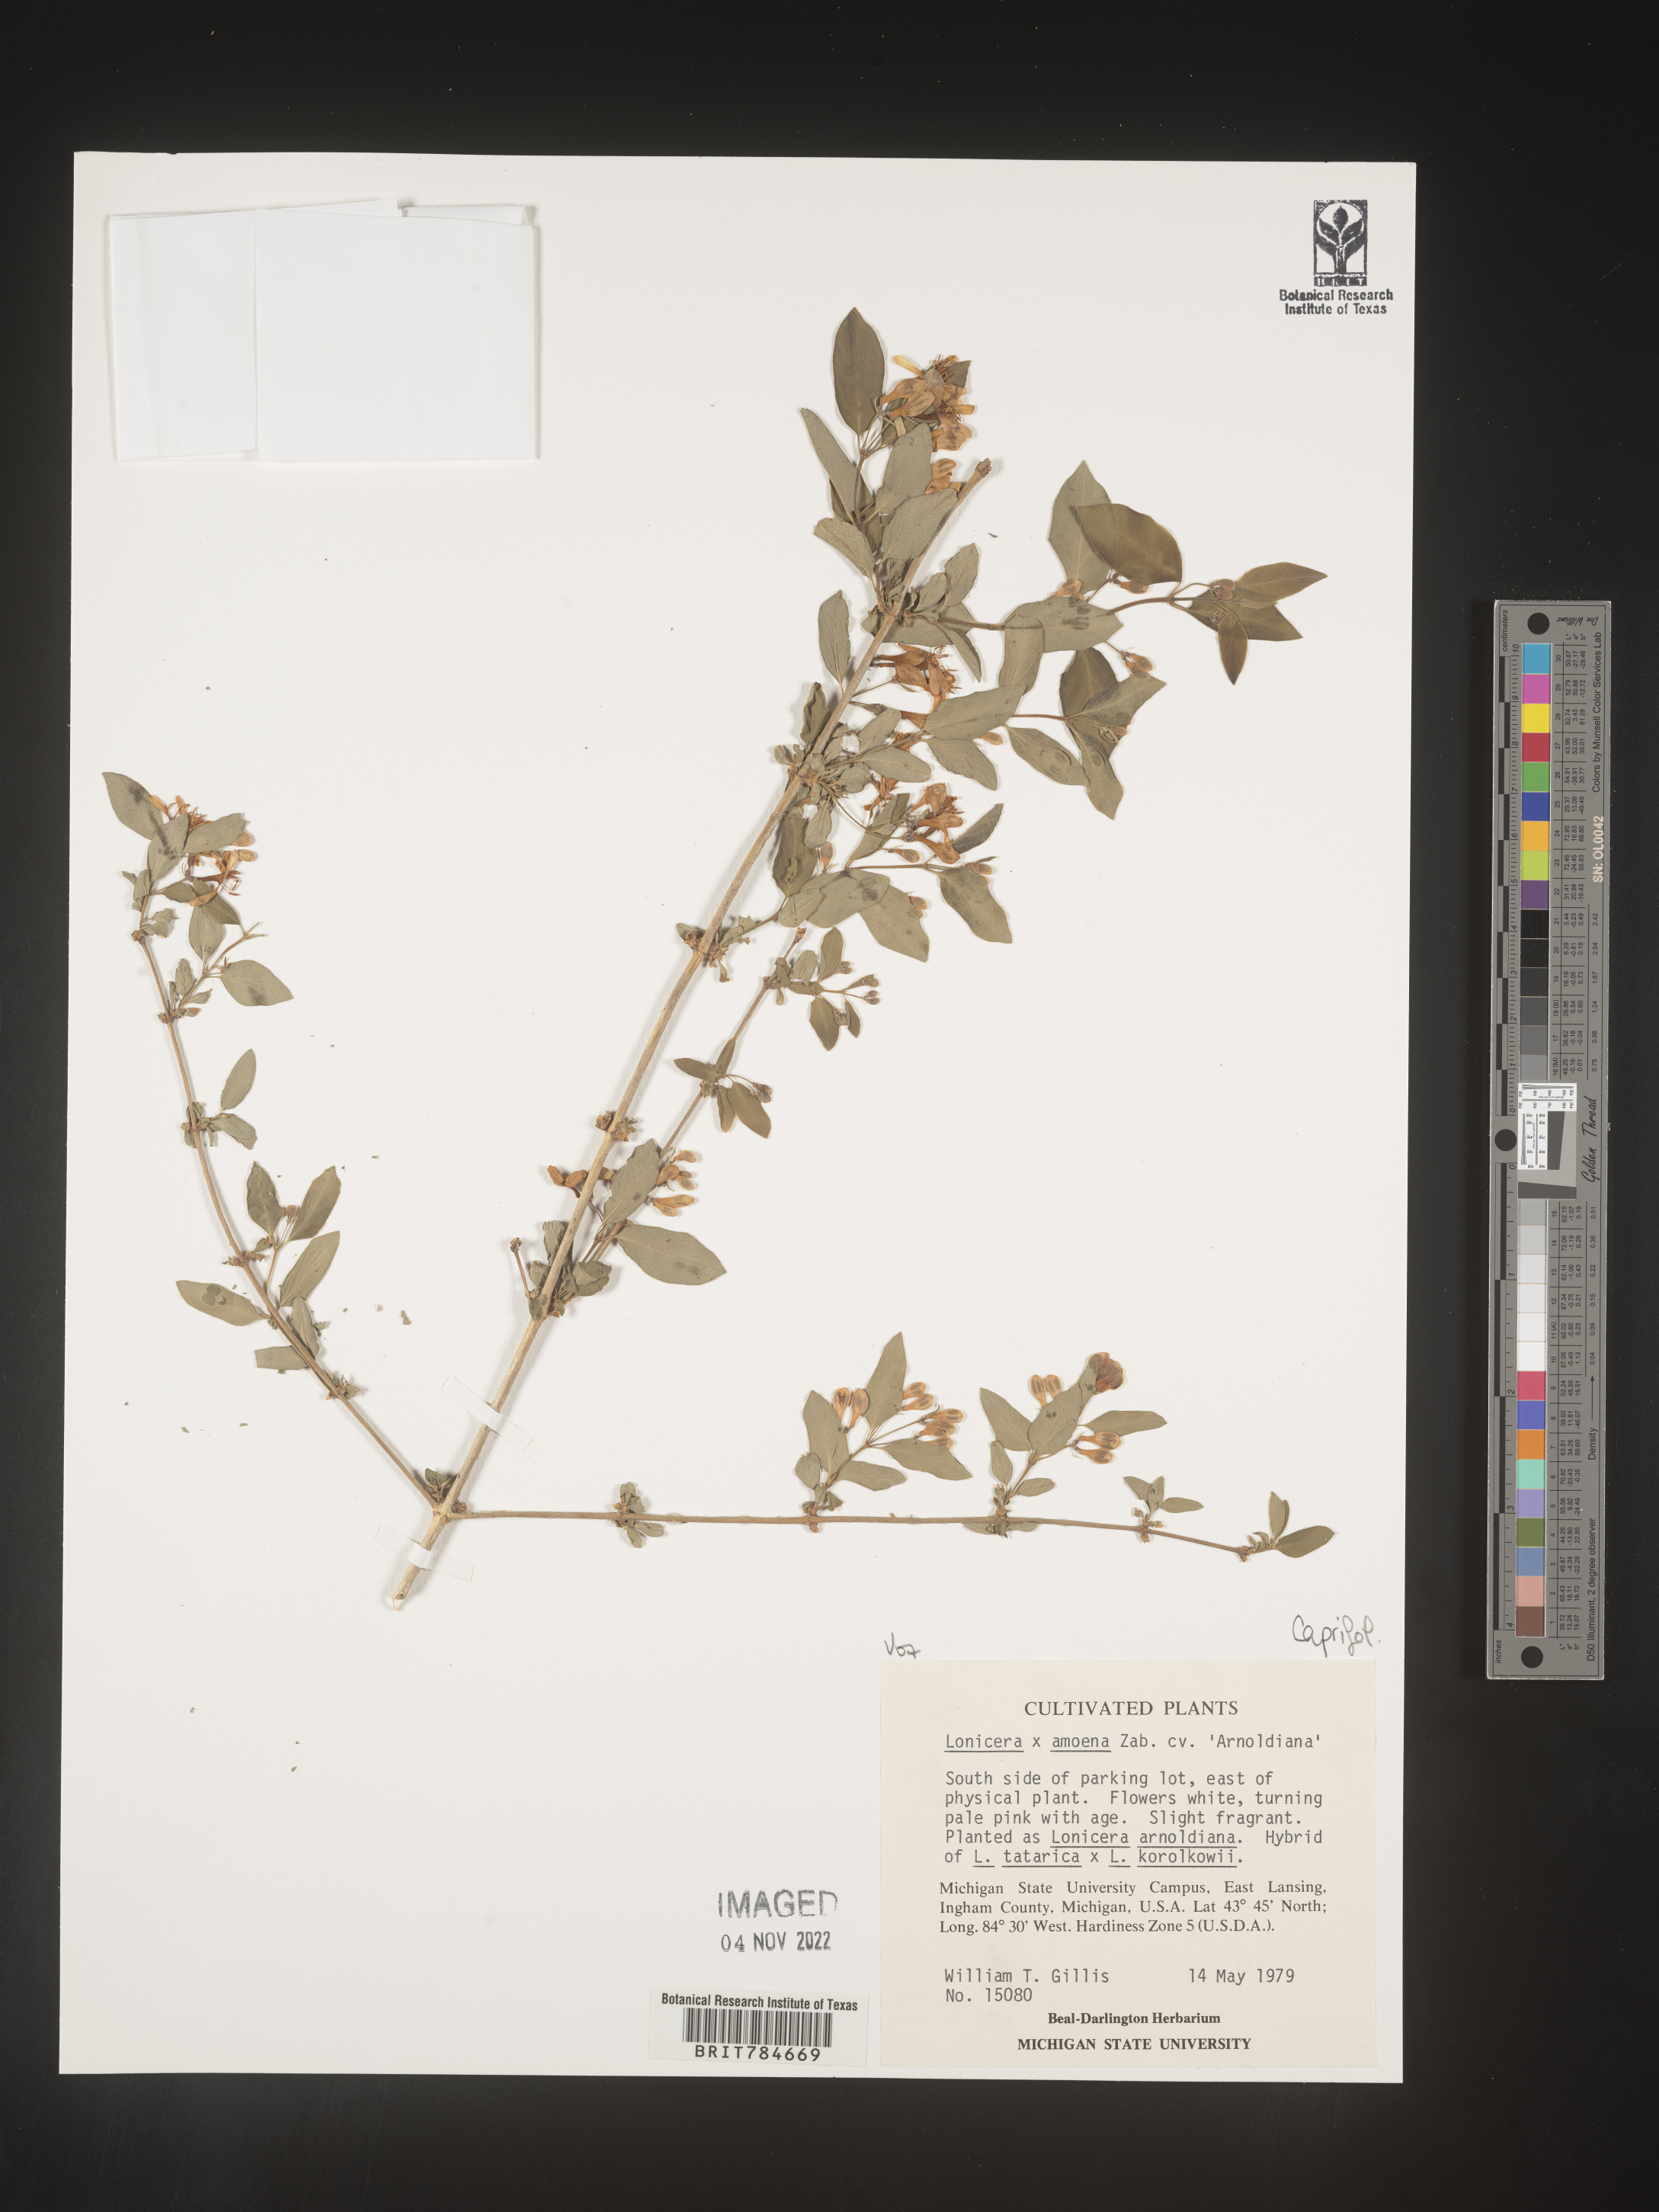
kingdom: Plantae
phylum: Tracheophyta
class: Magnoliopsida
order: Dipsacales
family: Caprifoliaceae
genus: Lonicera
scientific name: Lonicera
